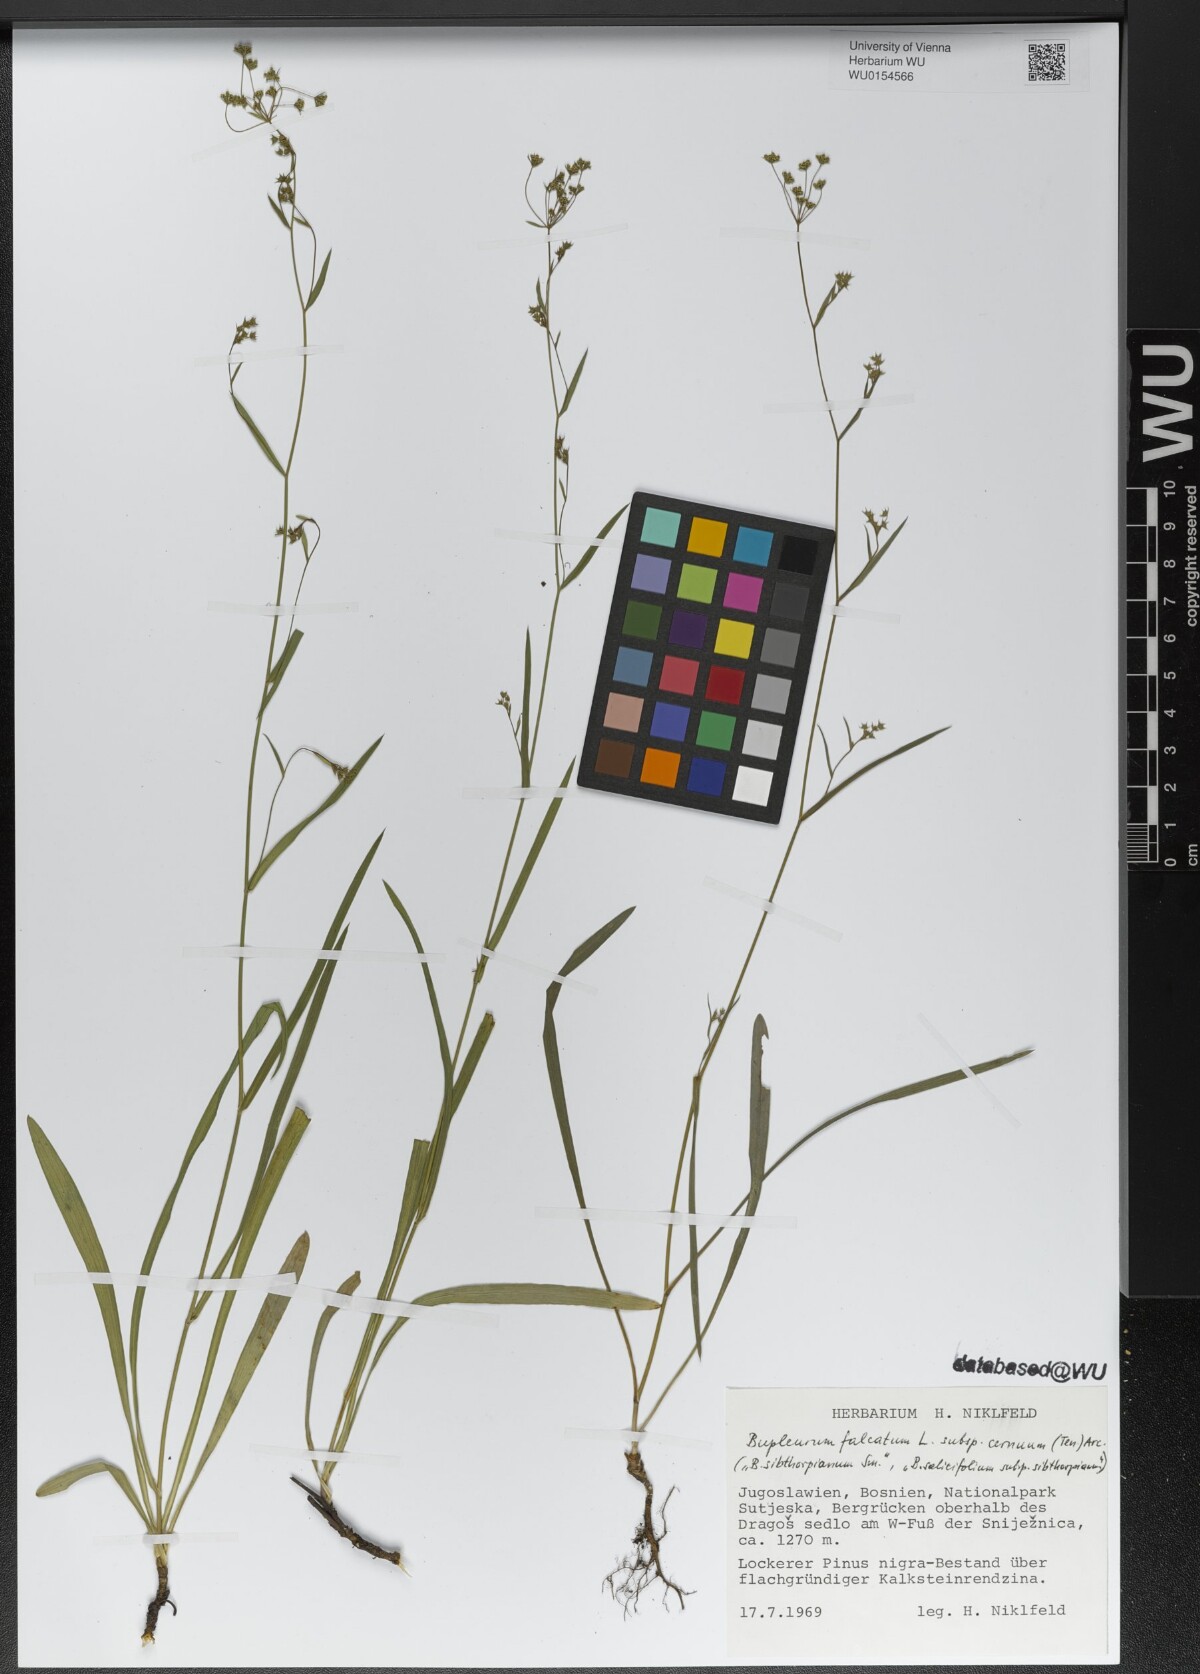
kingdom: Plantae
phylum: Tracheophyta
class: Magnoliopsida
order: Apiales
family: Apiaceae
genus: Bupleurum
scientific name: Bupleurum exaltatum
